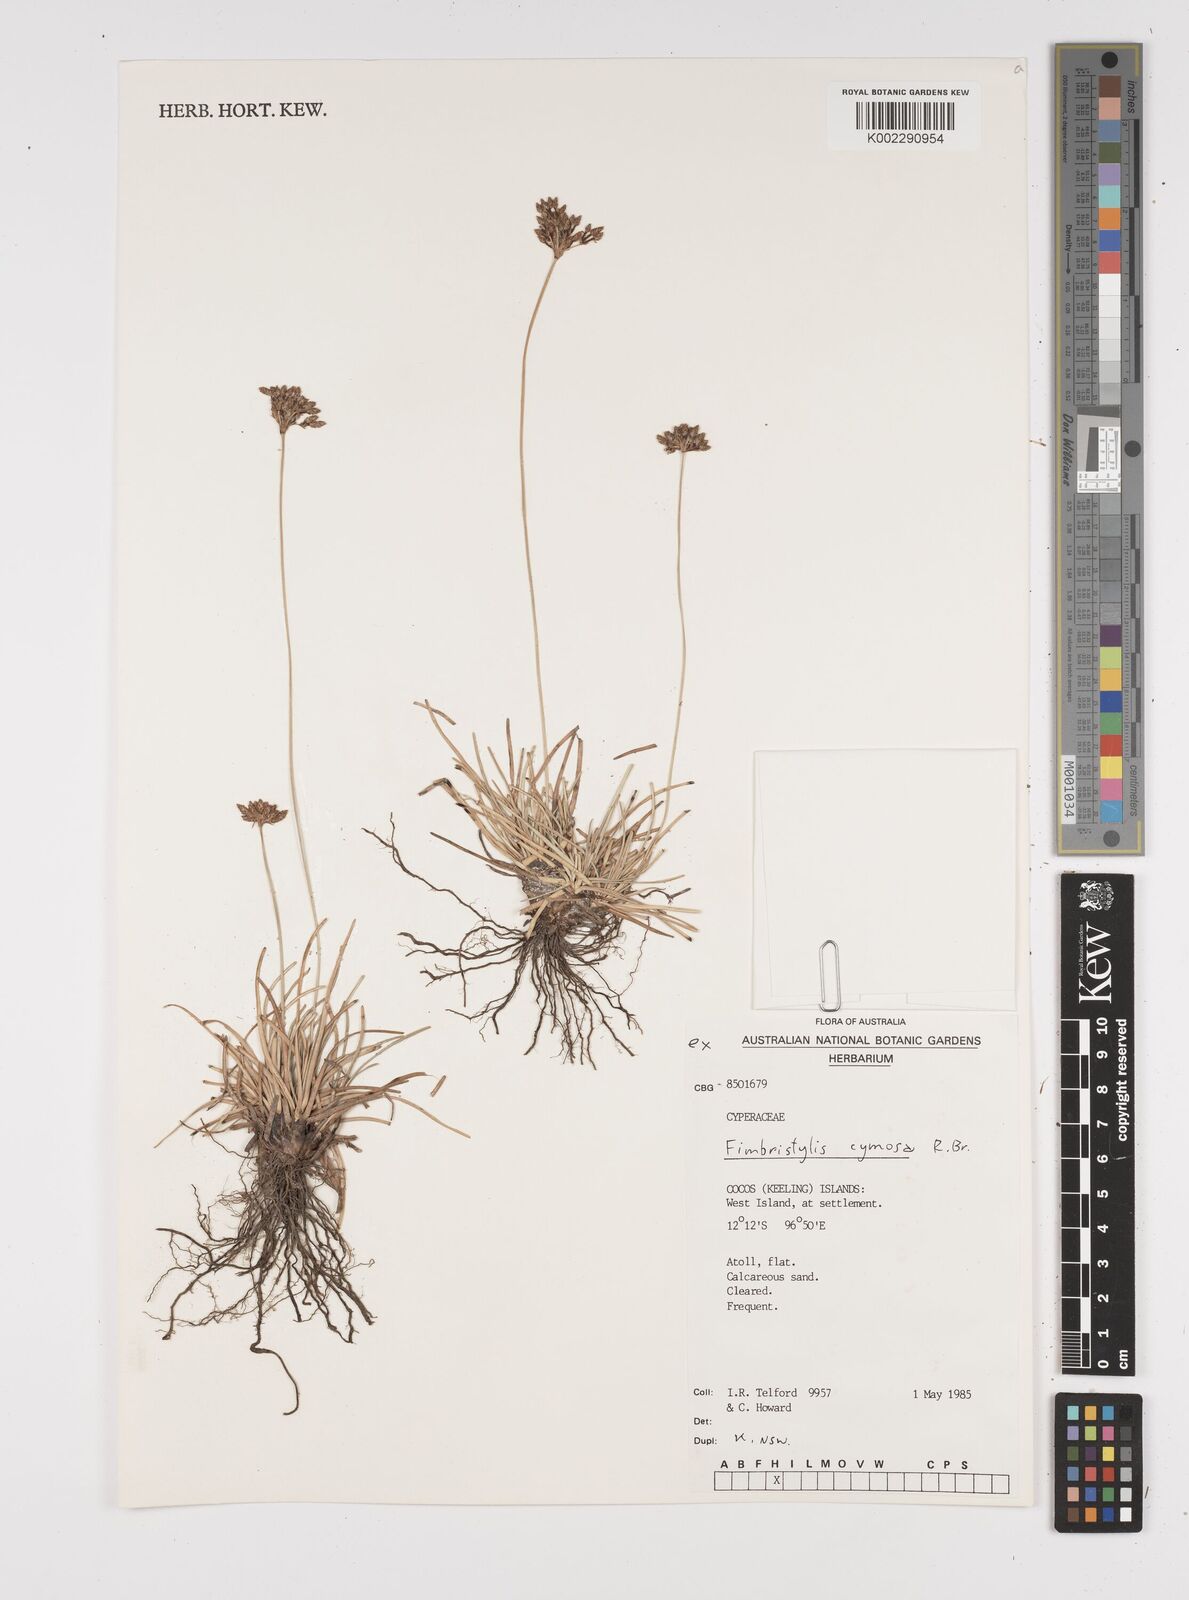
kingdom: Plantae
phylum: Tracheophyta
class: Liliopsida
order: Poales
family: Cyperaceae
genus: Fimbristylis
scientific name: Fimbristylis cymosa
